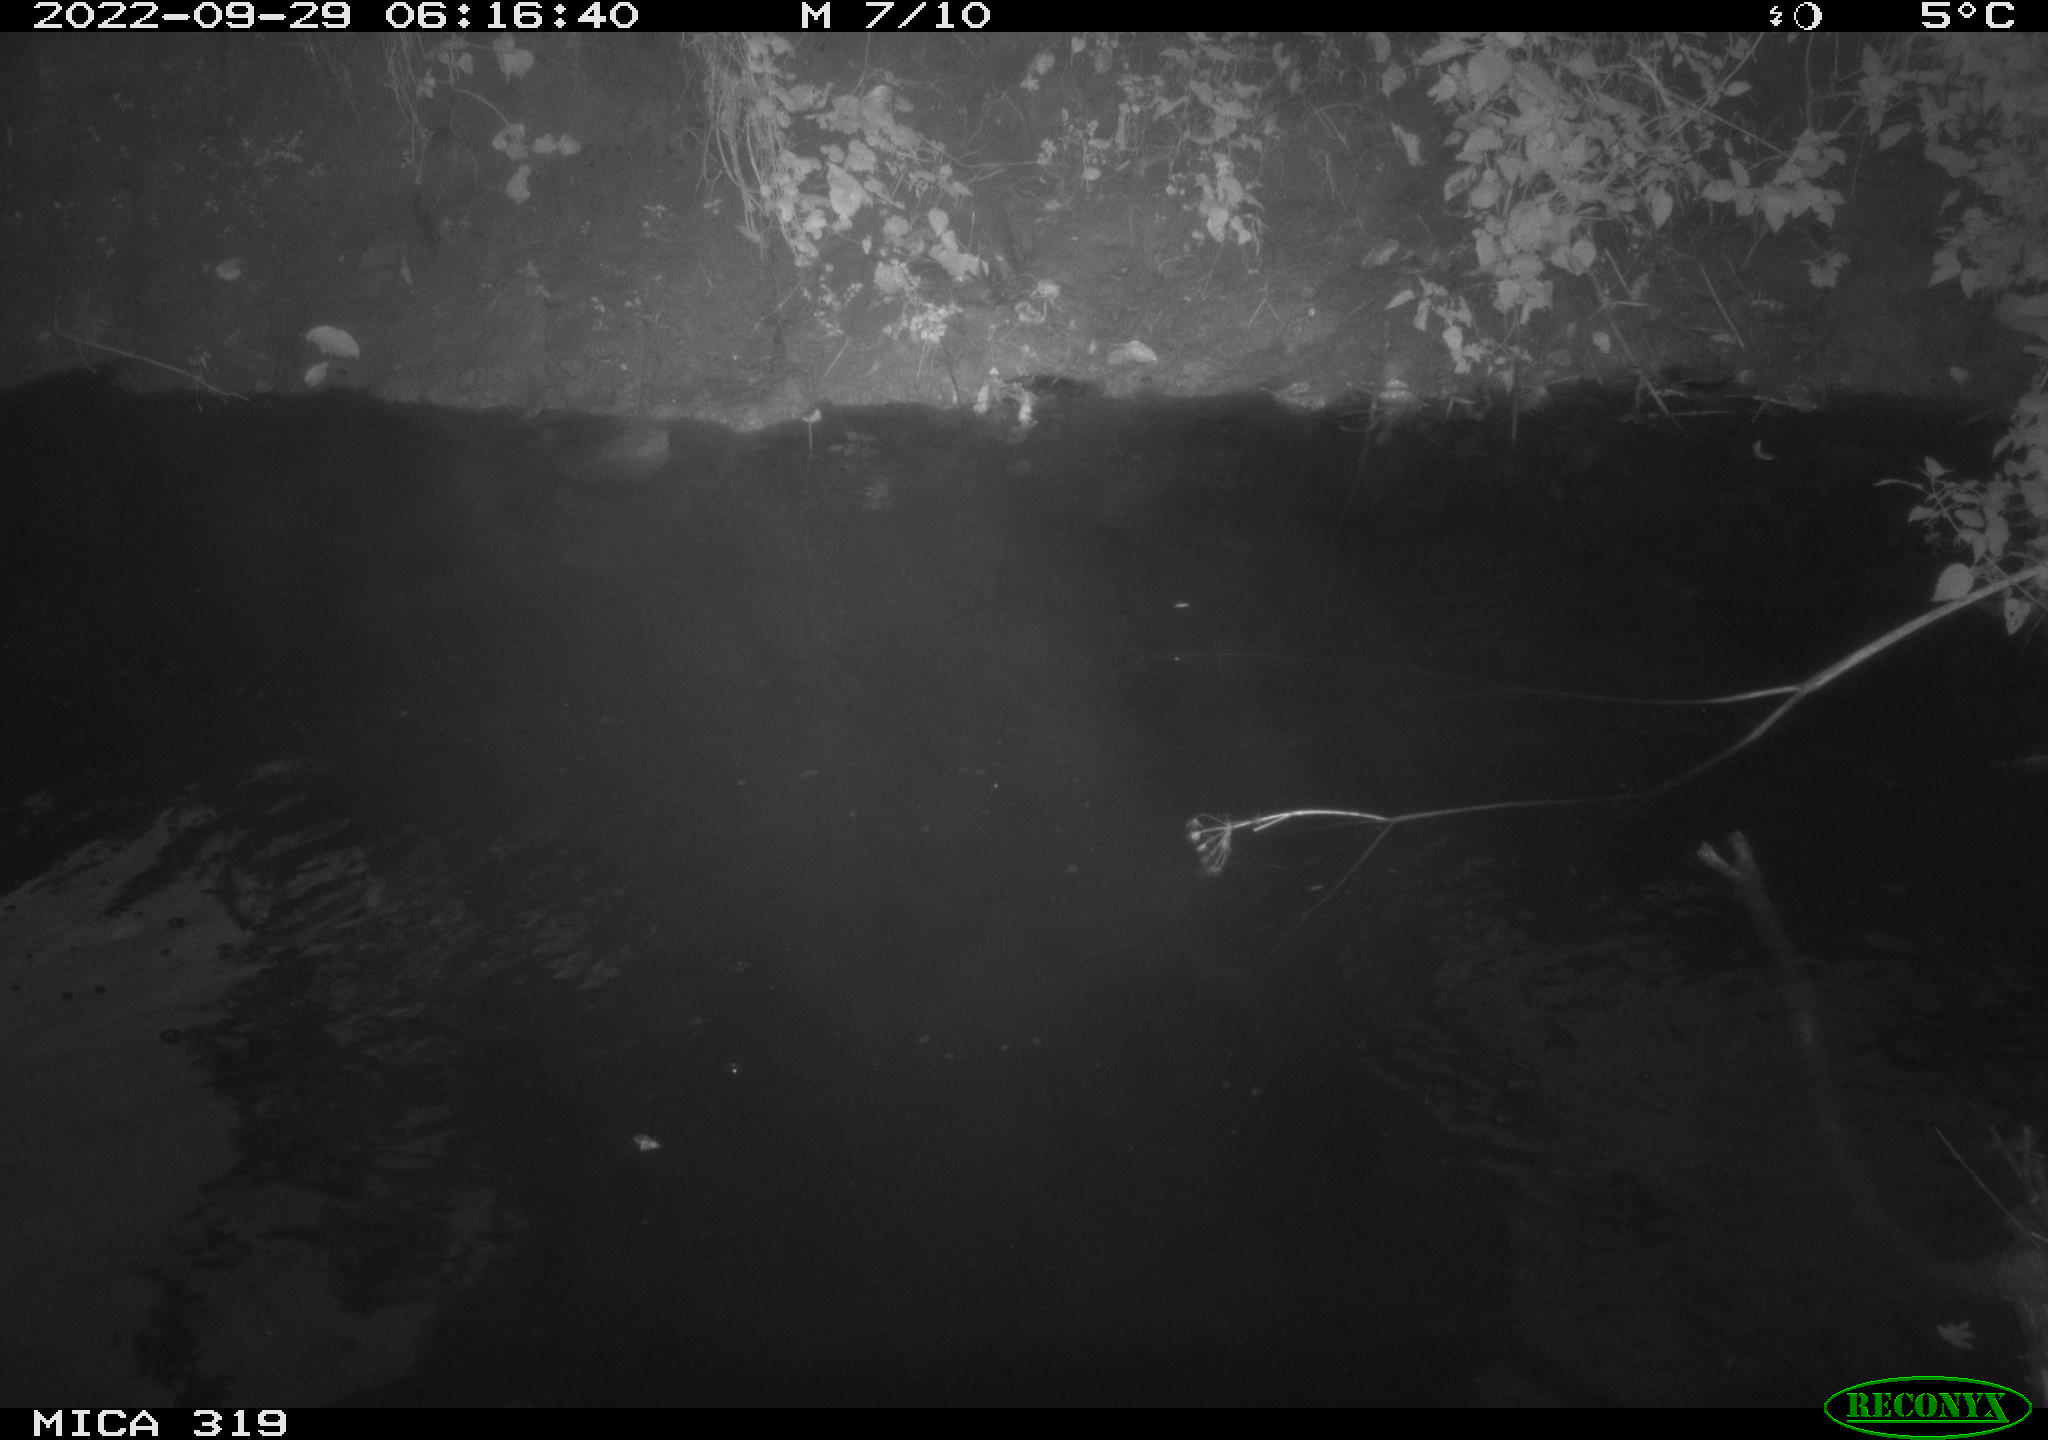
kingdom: Animalia
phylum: Chordata
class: Aves
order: Anseriformes
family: Anatidae
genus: Anas
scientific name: Anas
